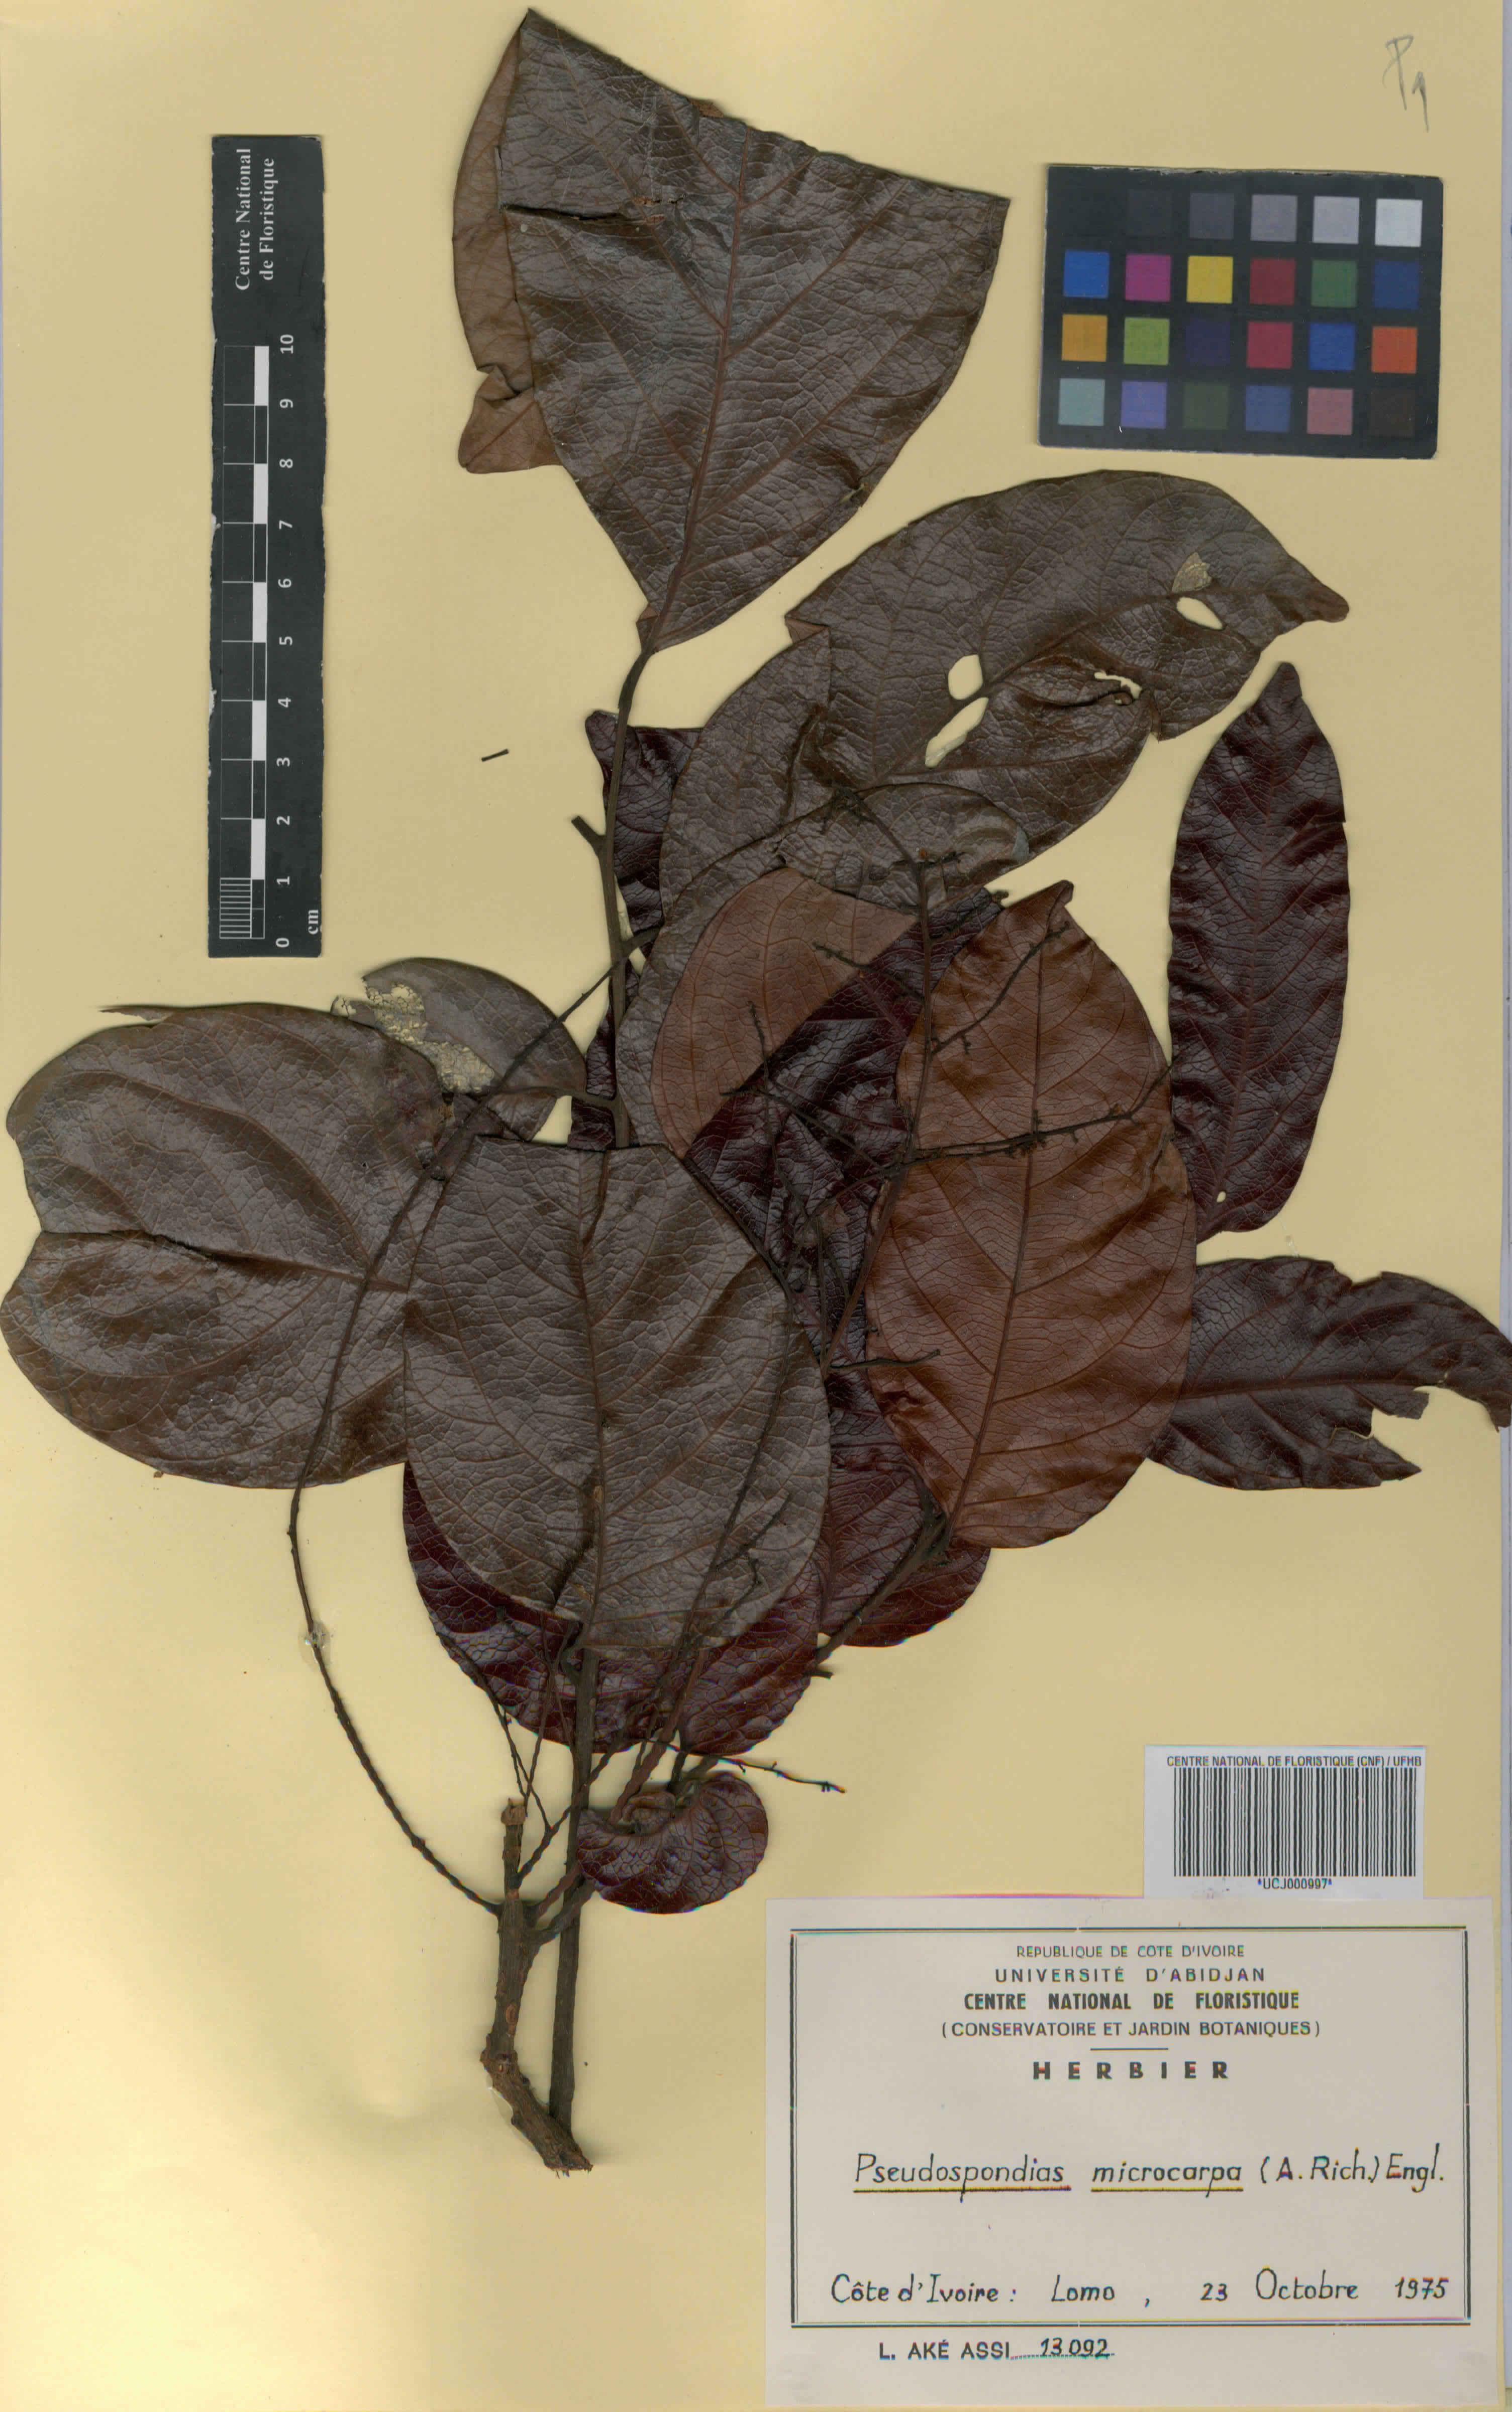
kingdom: Plantae
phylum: Tracheophyta
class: Magnoliopsida
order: Sapindales
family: Anacardiaceae
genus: Pseudospondias
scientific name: Pseudospondias microcarpa
